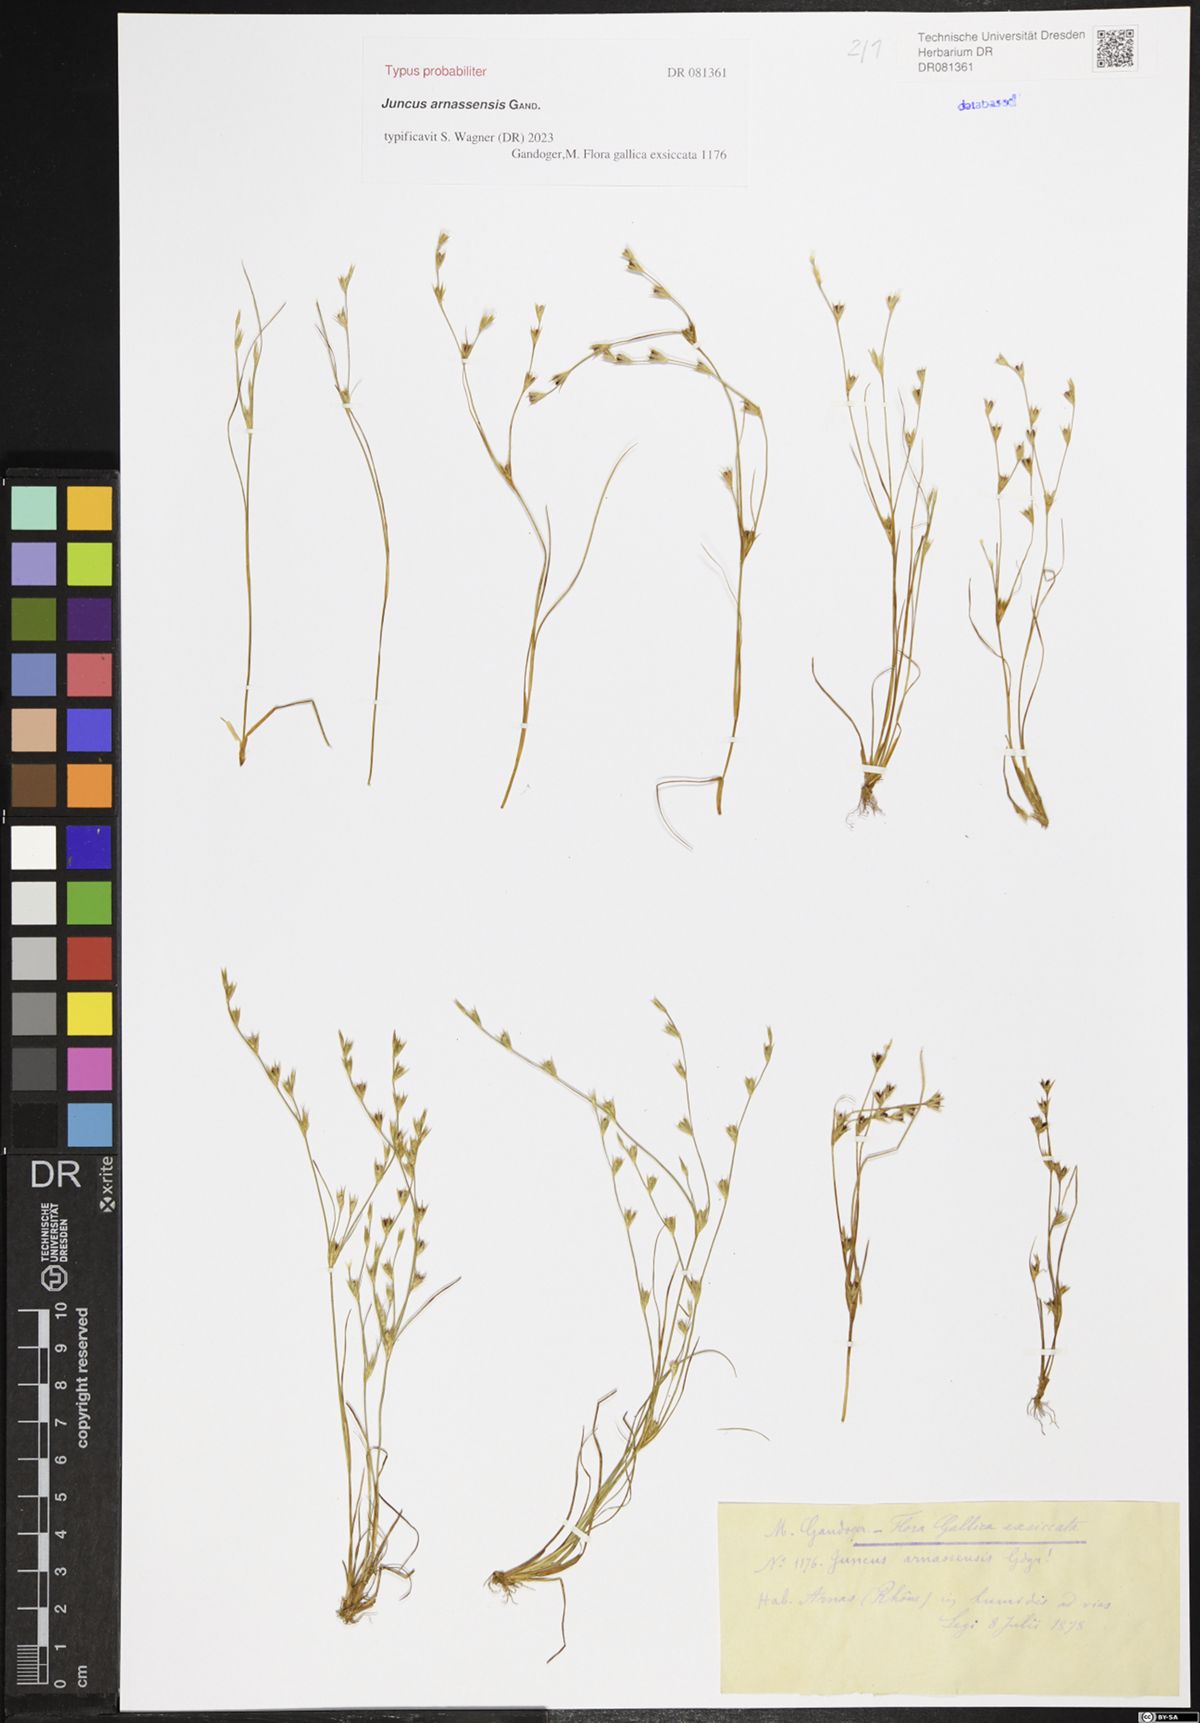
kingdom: Plantae
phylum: Tracheophyta
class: Liliopsida
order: Poales
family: Juncaceae
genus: Juncus
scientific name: Juncus
